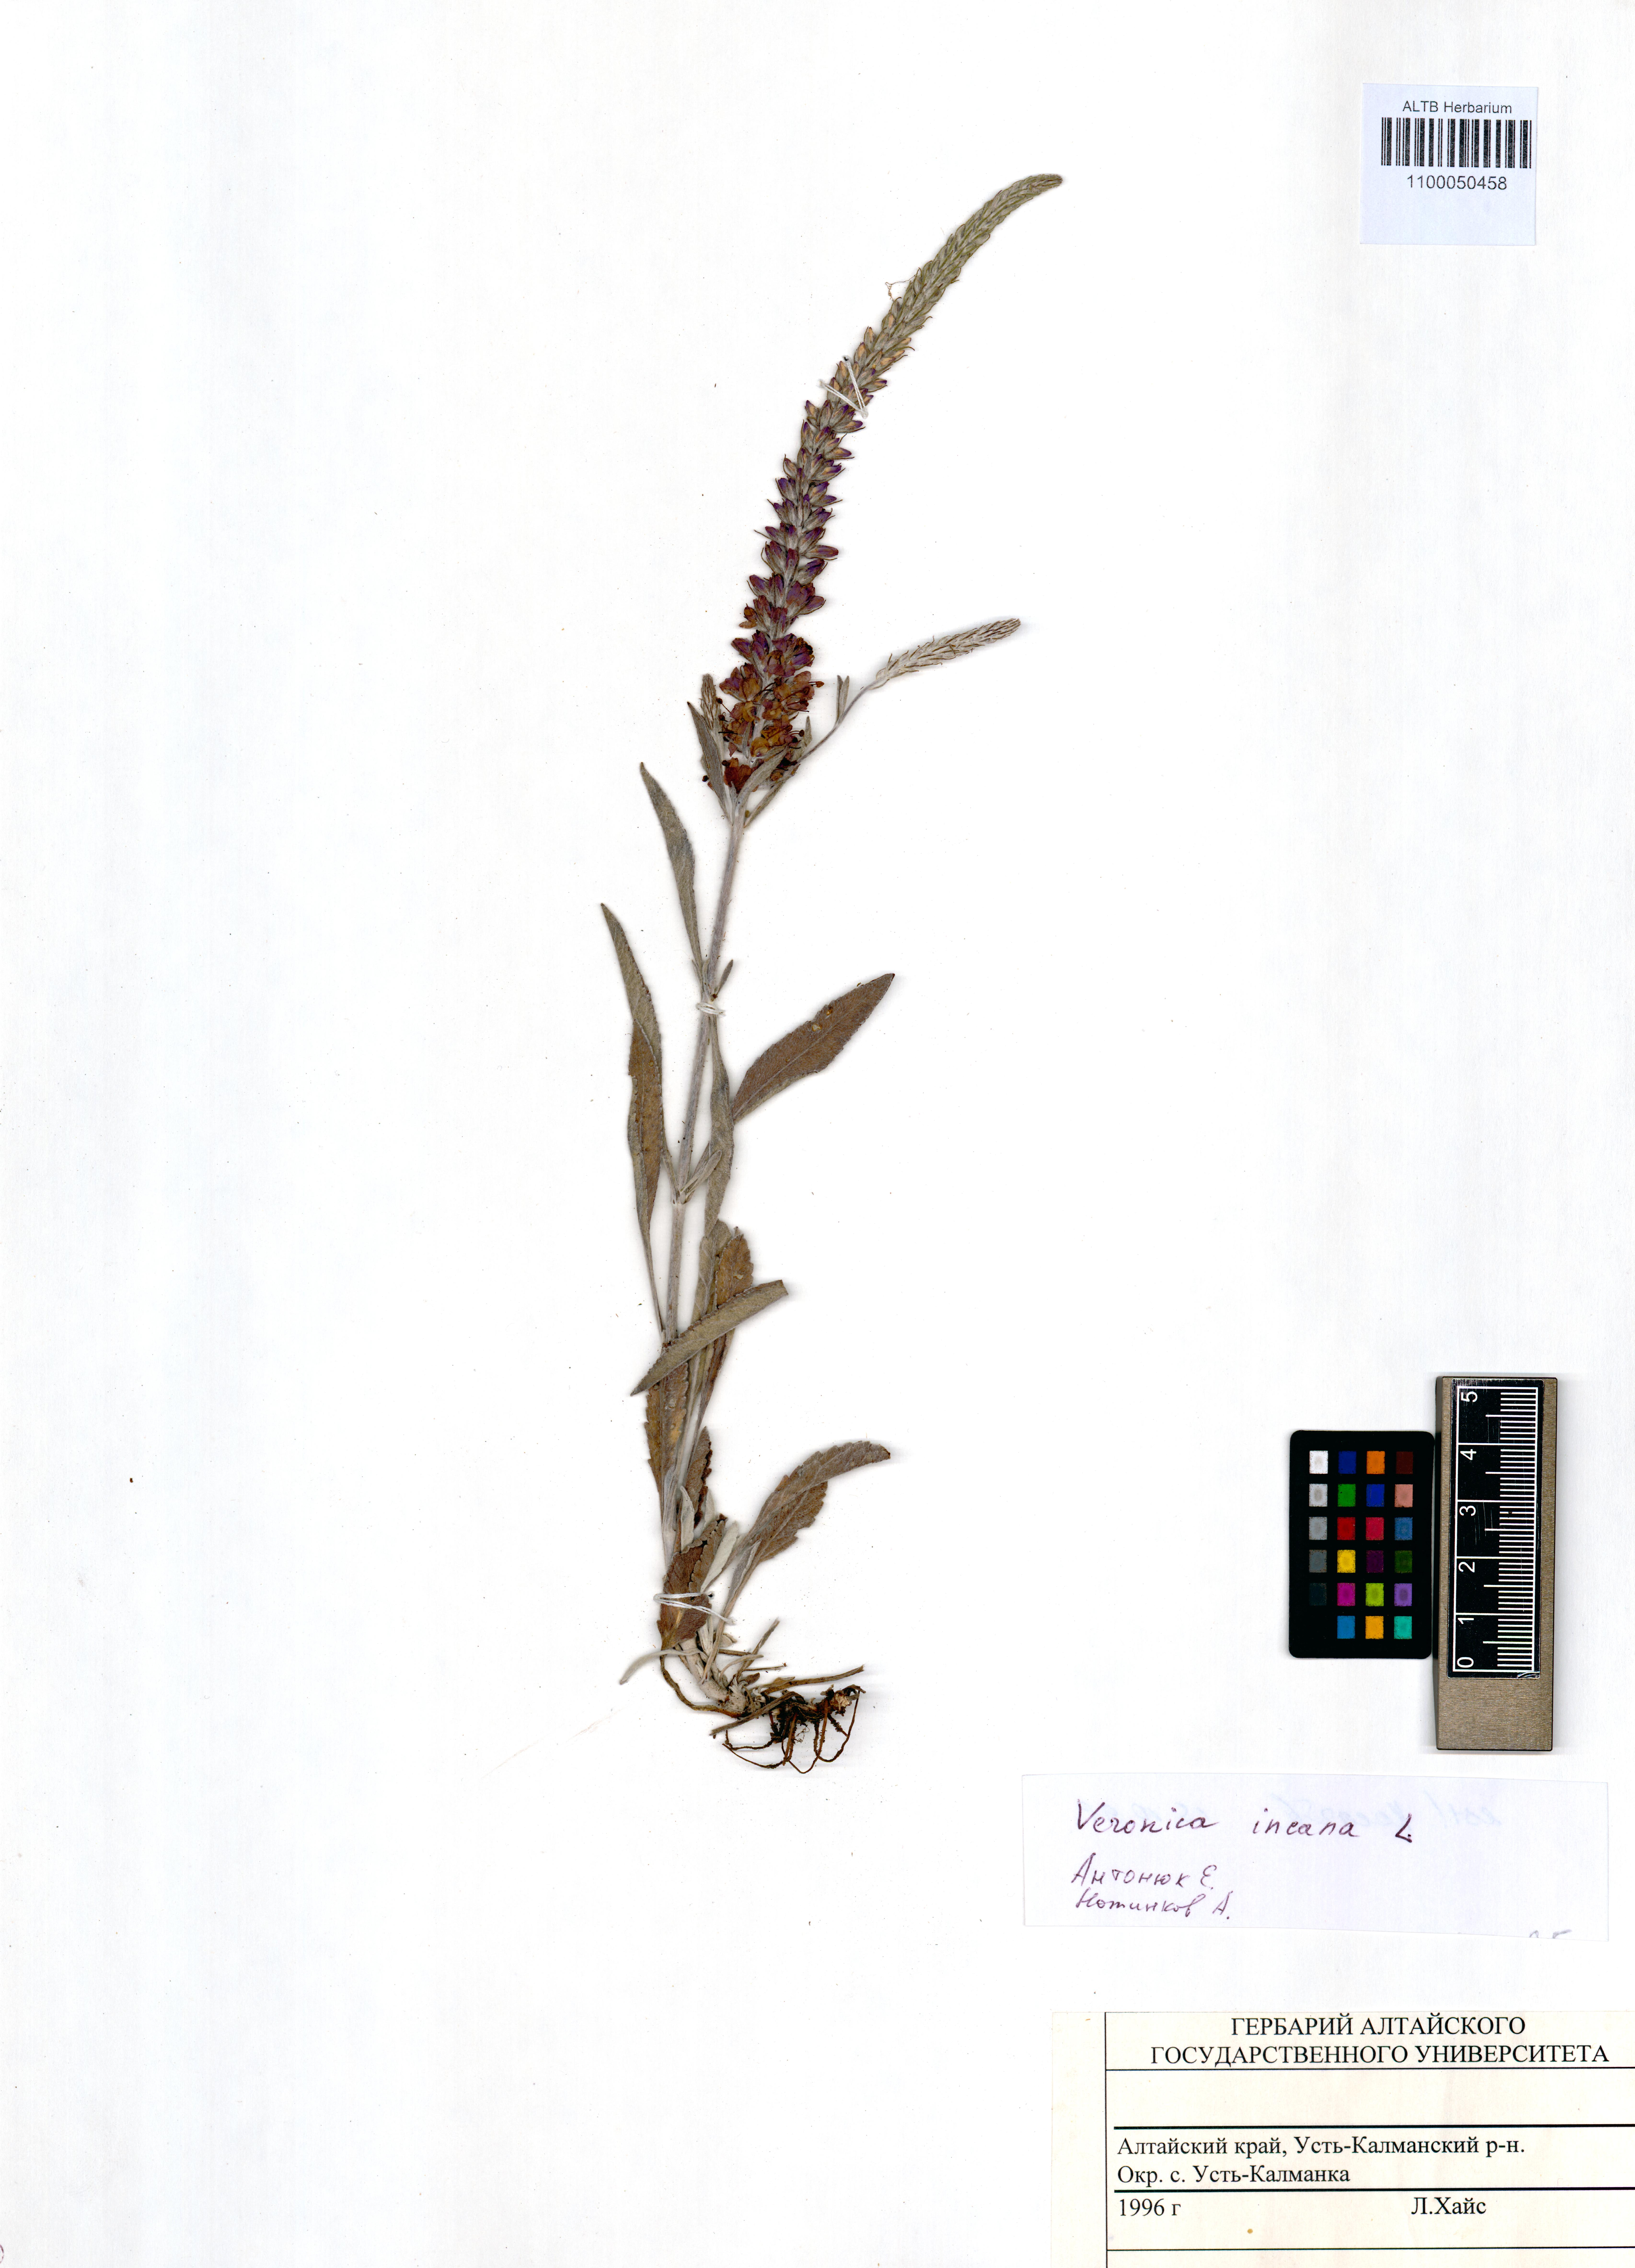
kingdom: Plantae
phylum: Tracheophyta
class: Magnoliopsida
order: Lamiales
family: Plantaginaceae
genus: Veronica
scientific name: Veronica incana
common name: Silver speedwell
